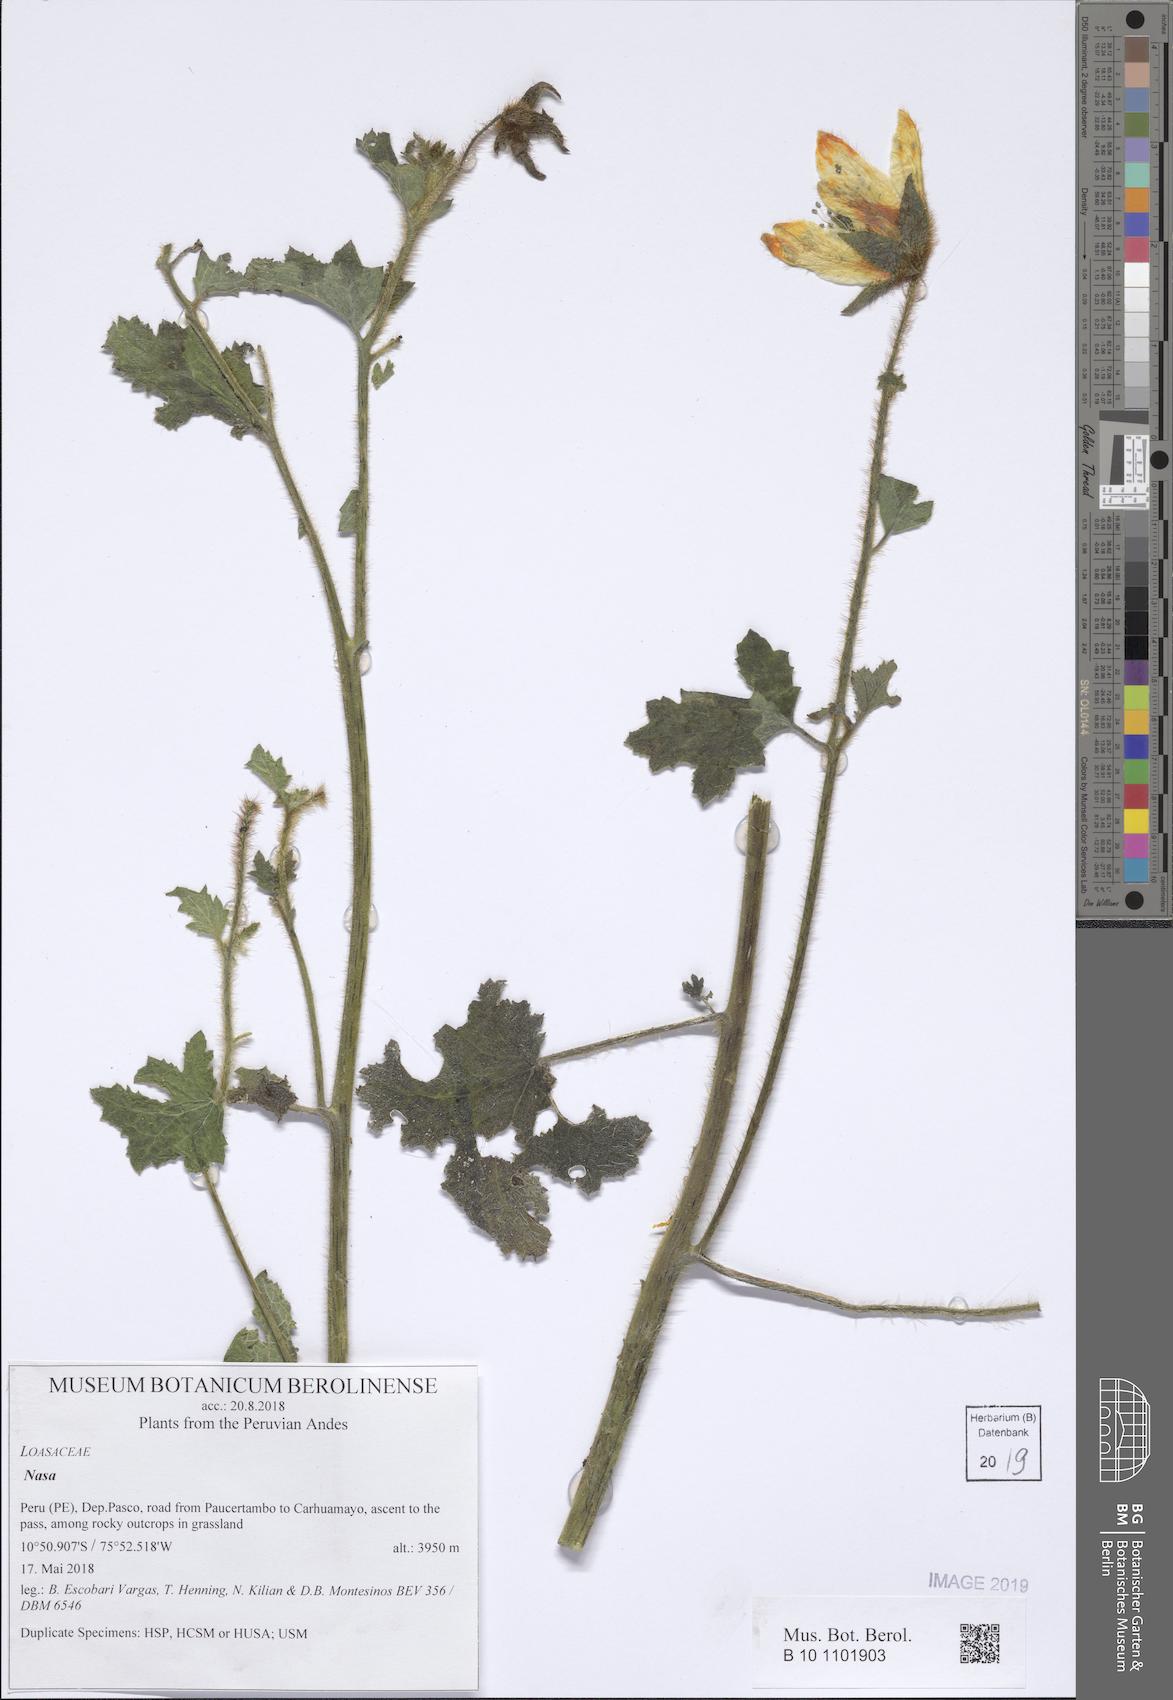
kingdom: Plantae
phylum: Tracheophyta
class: Magnoliopsida
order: Cornales
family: Loasaceae
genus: Nasa
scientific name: Nasa ranunculifolia
